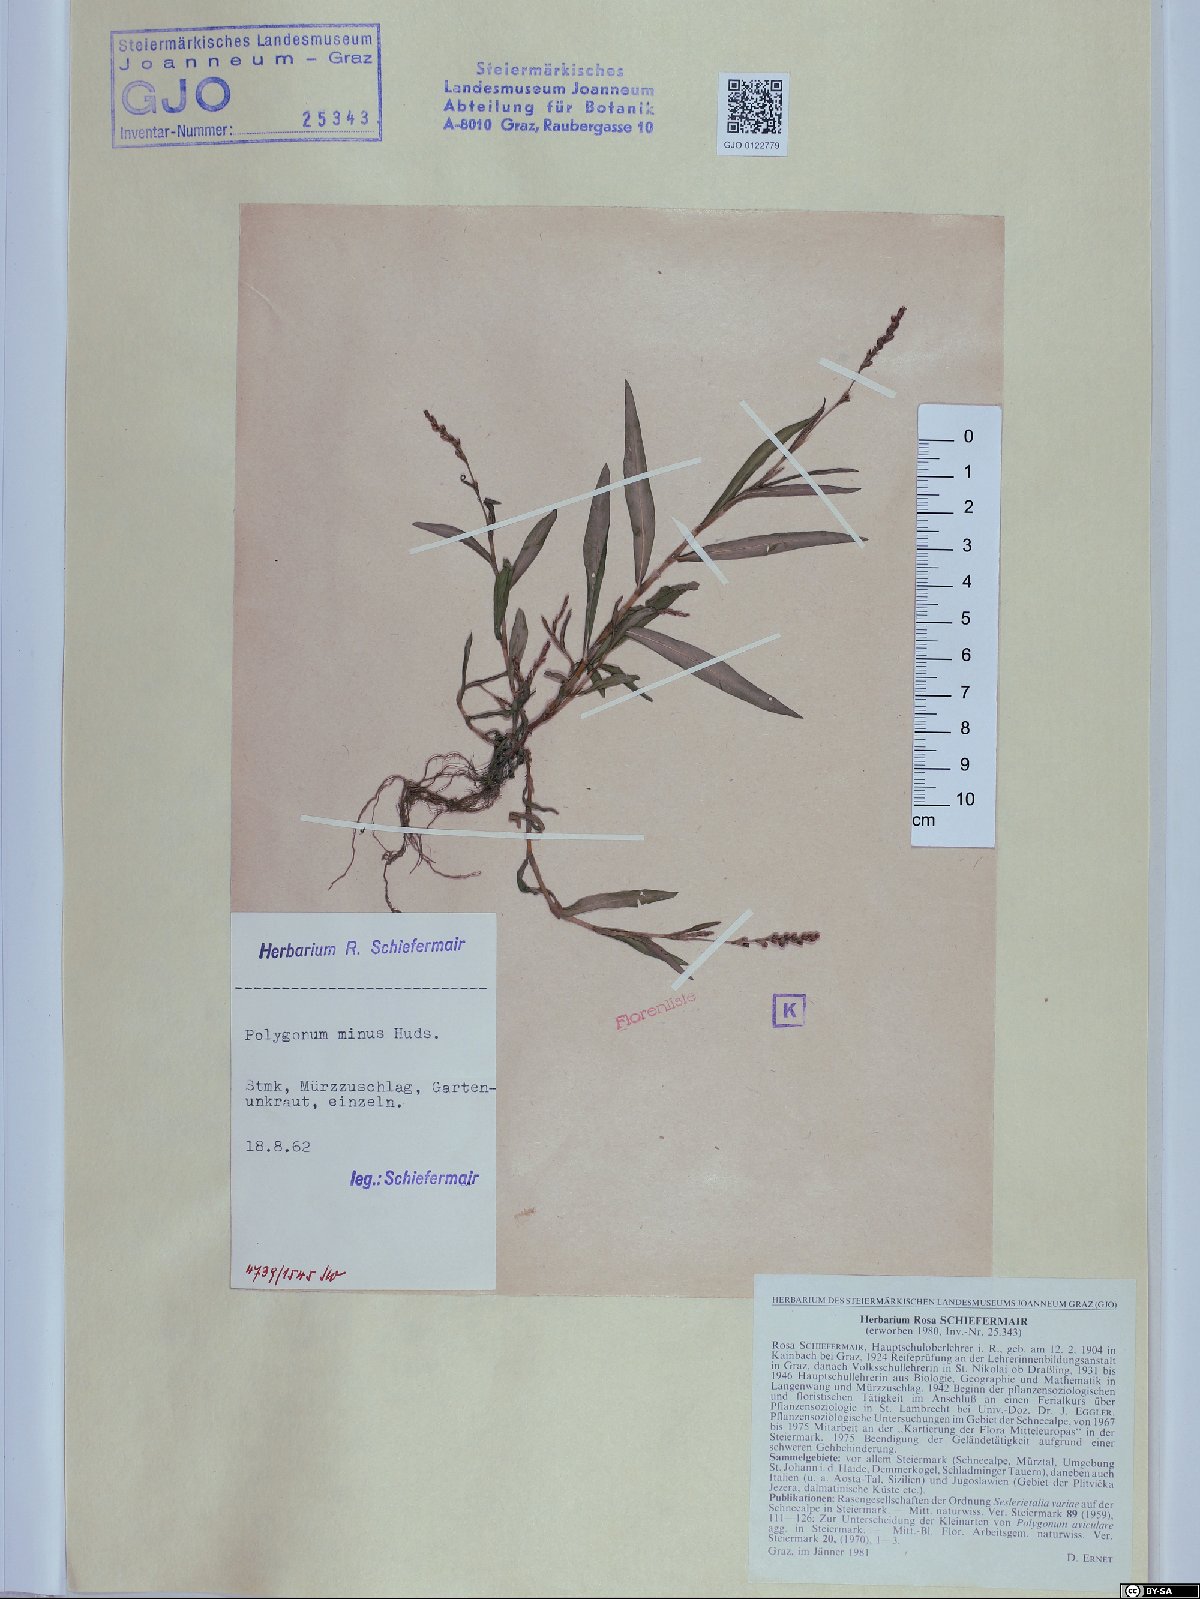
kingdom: Plantae
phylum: Tracheophyta
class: Magnoliopsida
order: Caryophyllales
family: Polygonaceae
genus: Persicaria
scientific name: Persicaria minor
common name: Small water-pepper
